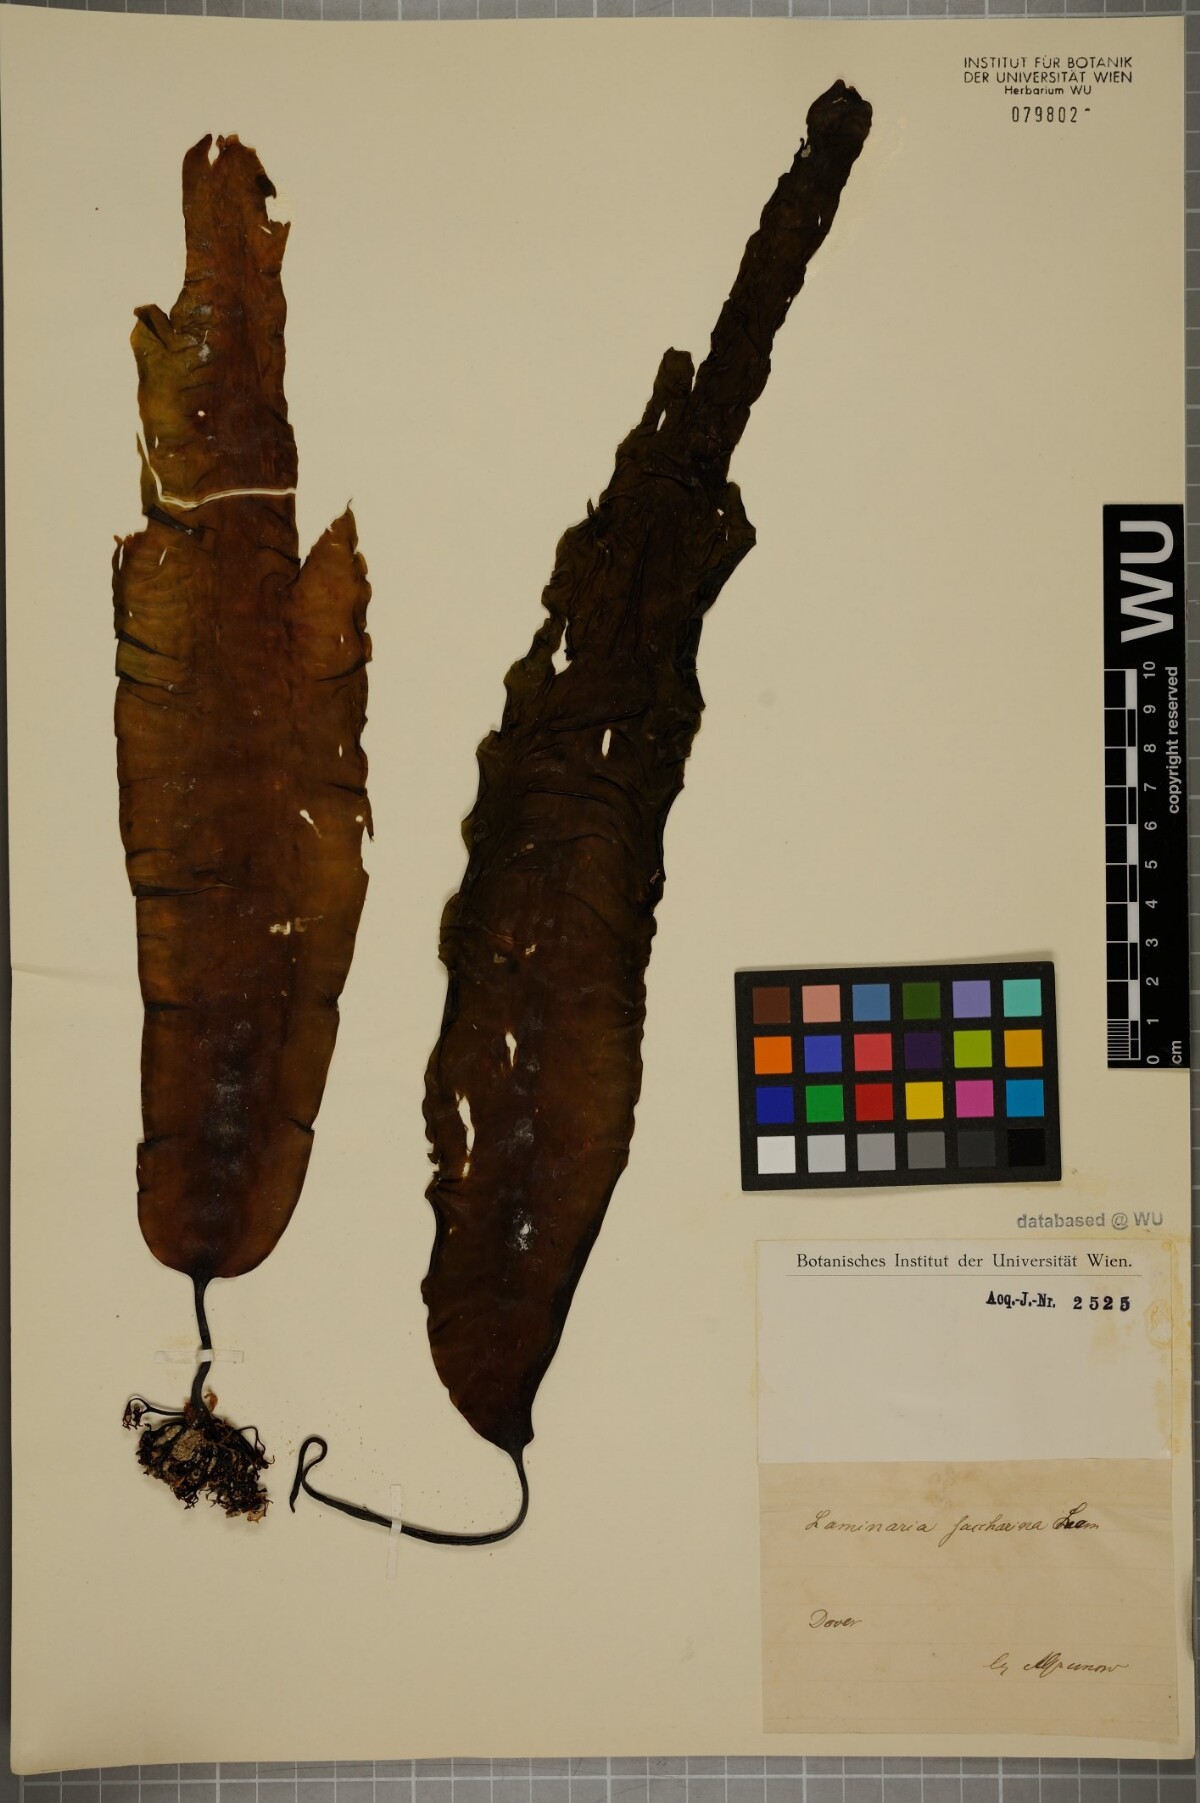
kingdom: Chromista
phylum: Ochrophyta
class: Phaeophyceae
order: Laminariales
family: Laminariaceae
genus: Saccharina
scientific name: Saccharina latissima
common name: Poor man's weather glass
